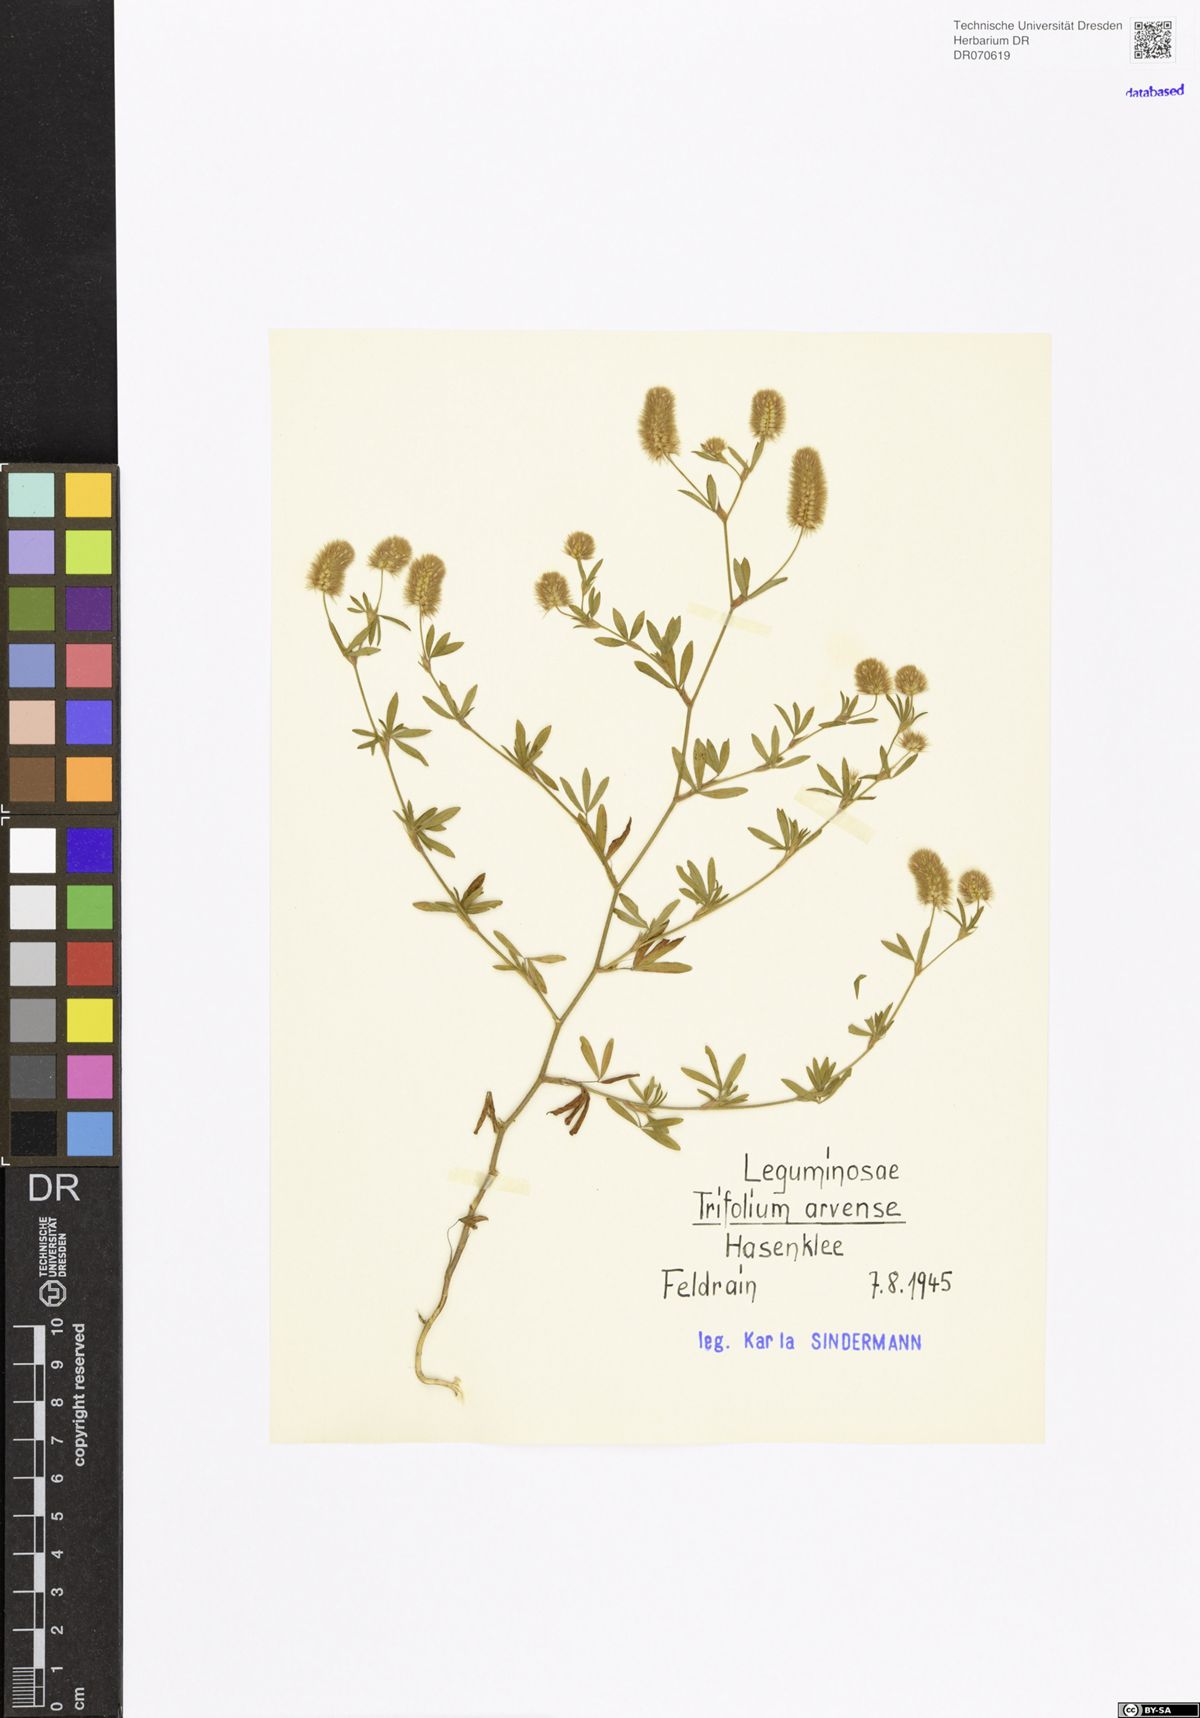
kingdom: Plantae
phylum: Tracheophyta
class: Magnoliopsida
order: Fabales
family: Fabaceae
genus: Trifolium
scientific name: Trifolium arvense
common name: Hare's-foot clover
